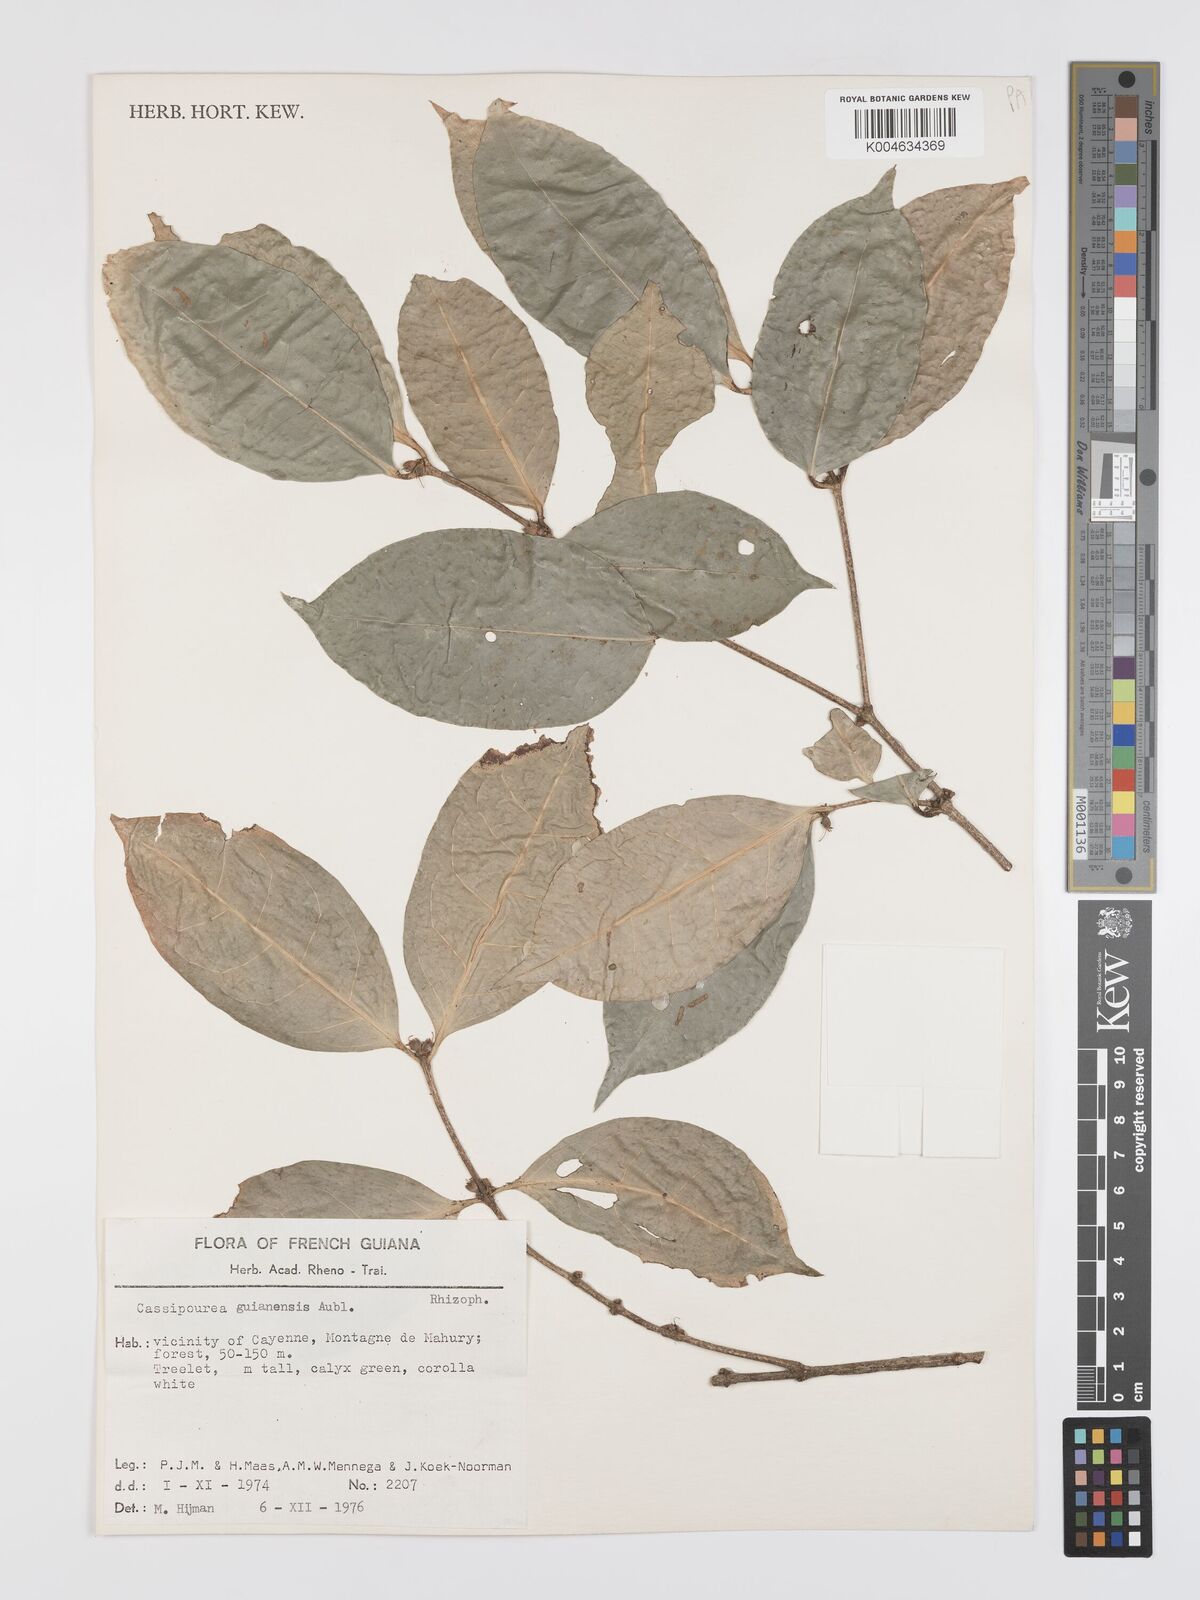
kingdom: Plantae
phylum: Tracheophyta
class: Magnoliopsida
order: Malpighiales
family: Rhizophoraceae
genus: Cassipourea
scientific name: Cassipourea guianensis
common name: Bastard waterwood
